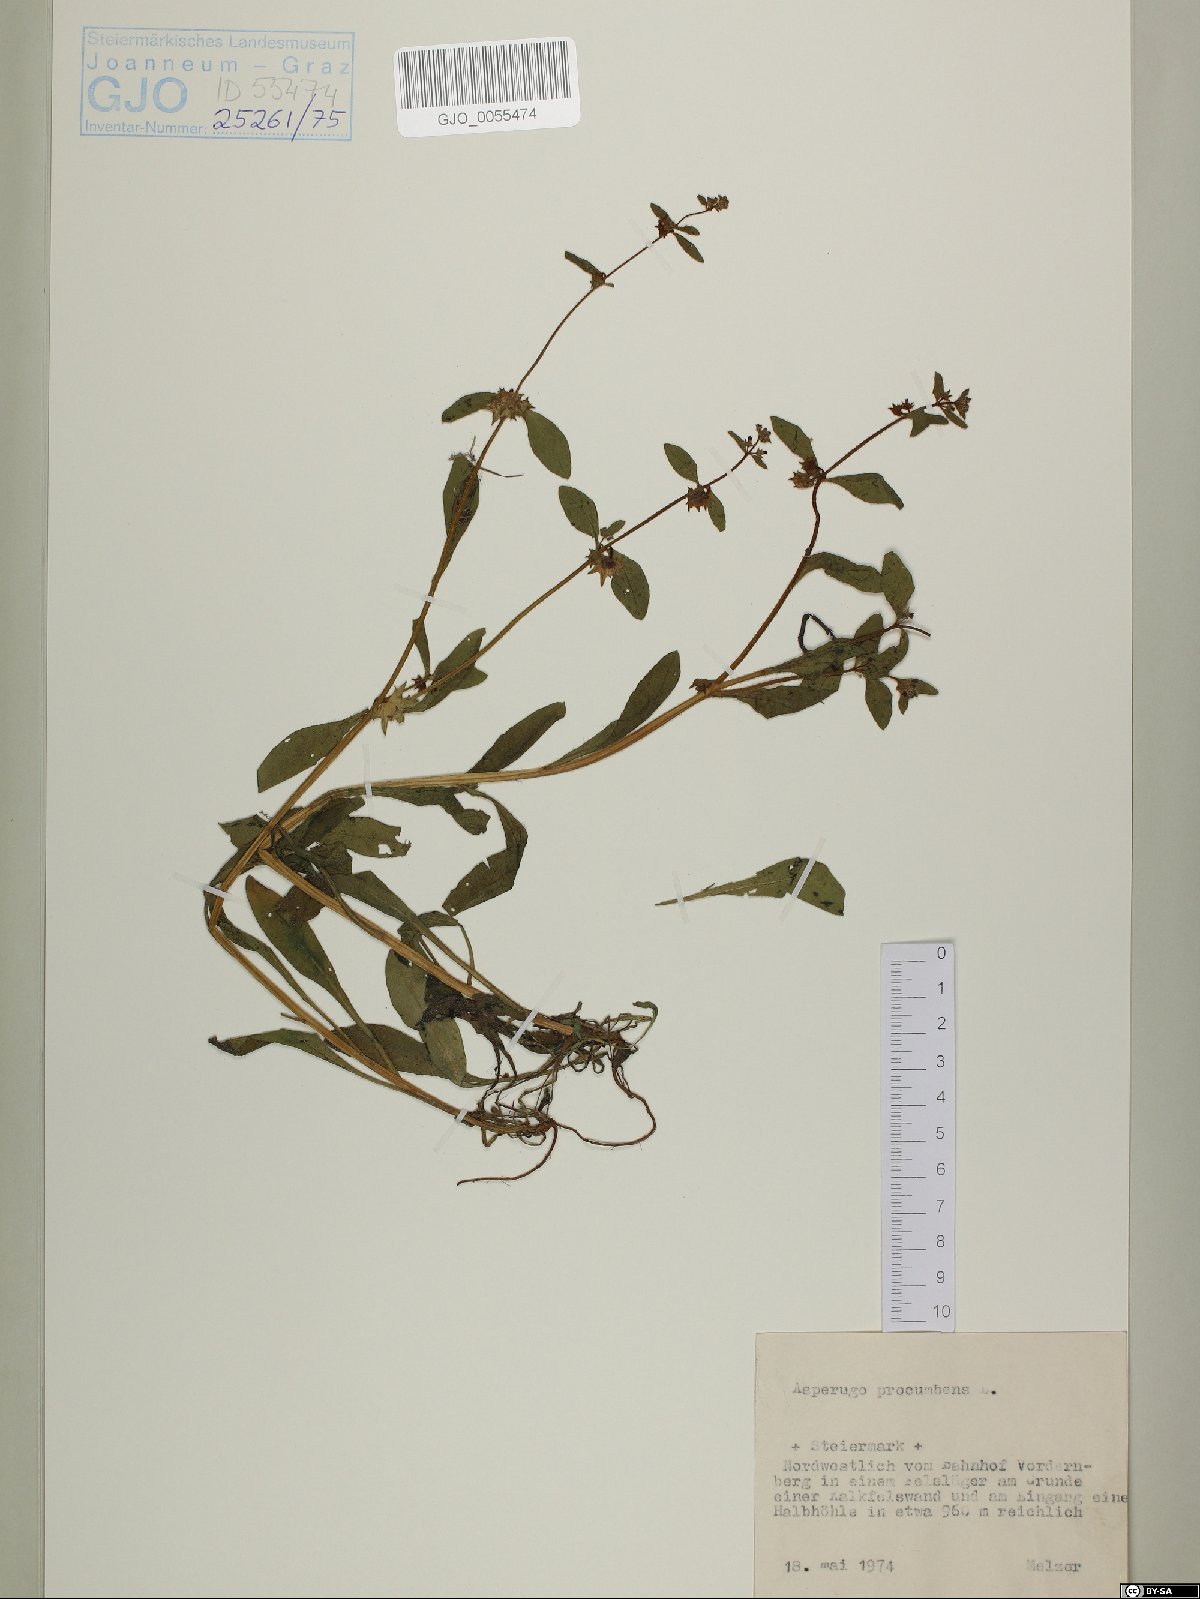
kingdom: Plantae
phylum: Tracheophyta
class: Magnoliopsida
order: Boraginales
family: Boraginaceae
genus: Asperugo
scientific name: Asperugo procumbens
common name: Madwort
